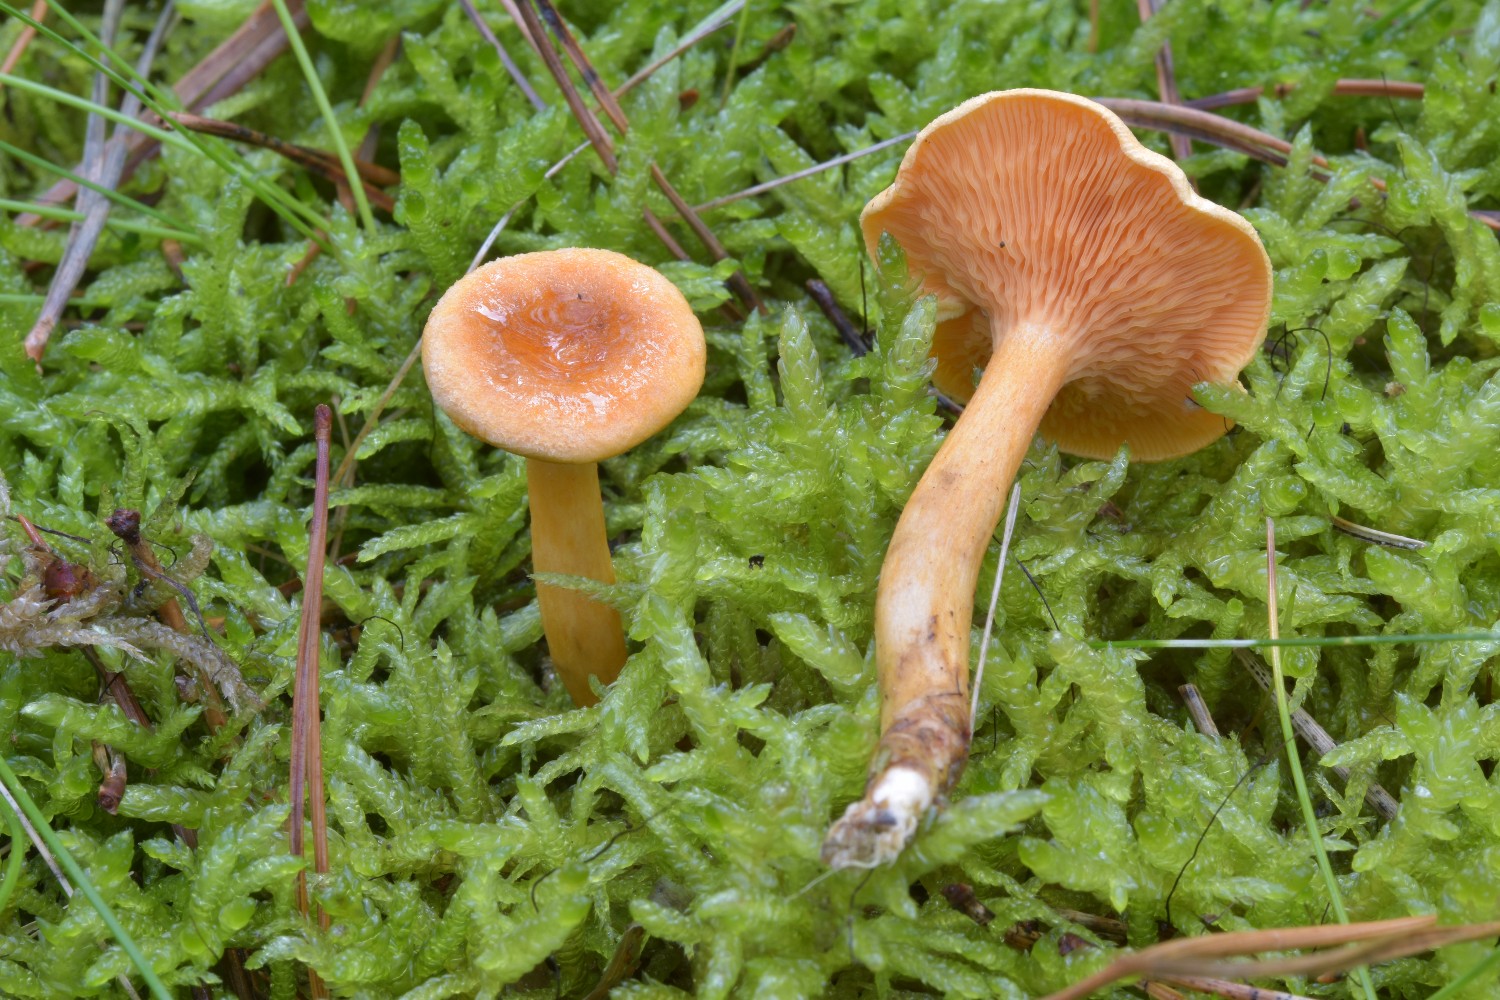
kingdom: Fungi
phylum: Basidiomycota
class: Agaricomycetes
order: Boletales
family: Hygrophoropsidaceae
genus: Hygrophoropsis
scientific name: Hygrophoropsis aurantiaca
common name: almindelig orangekantarel
